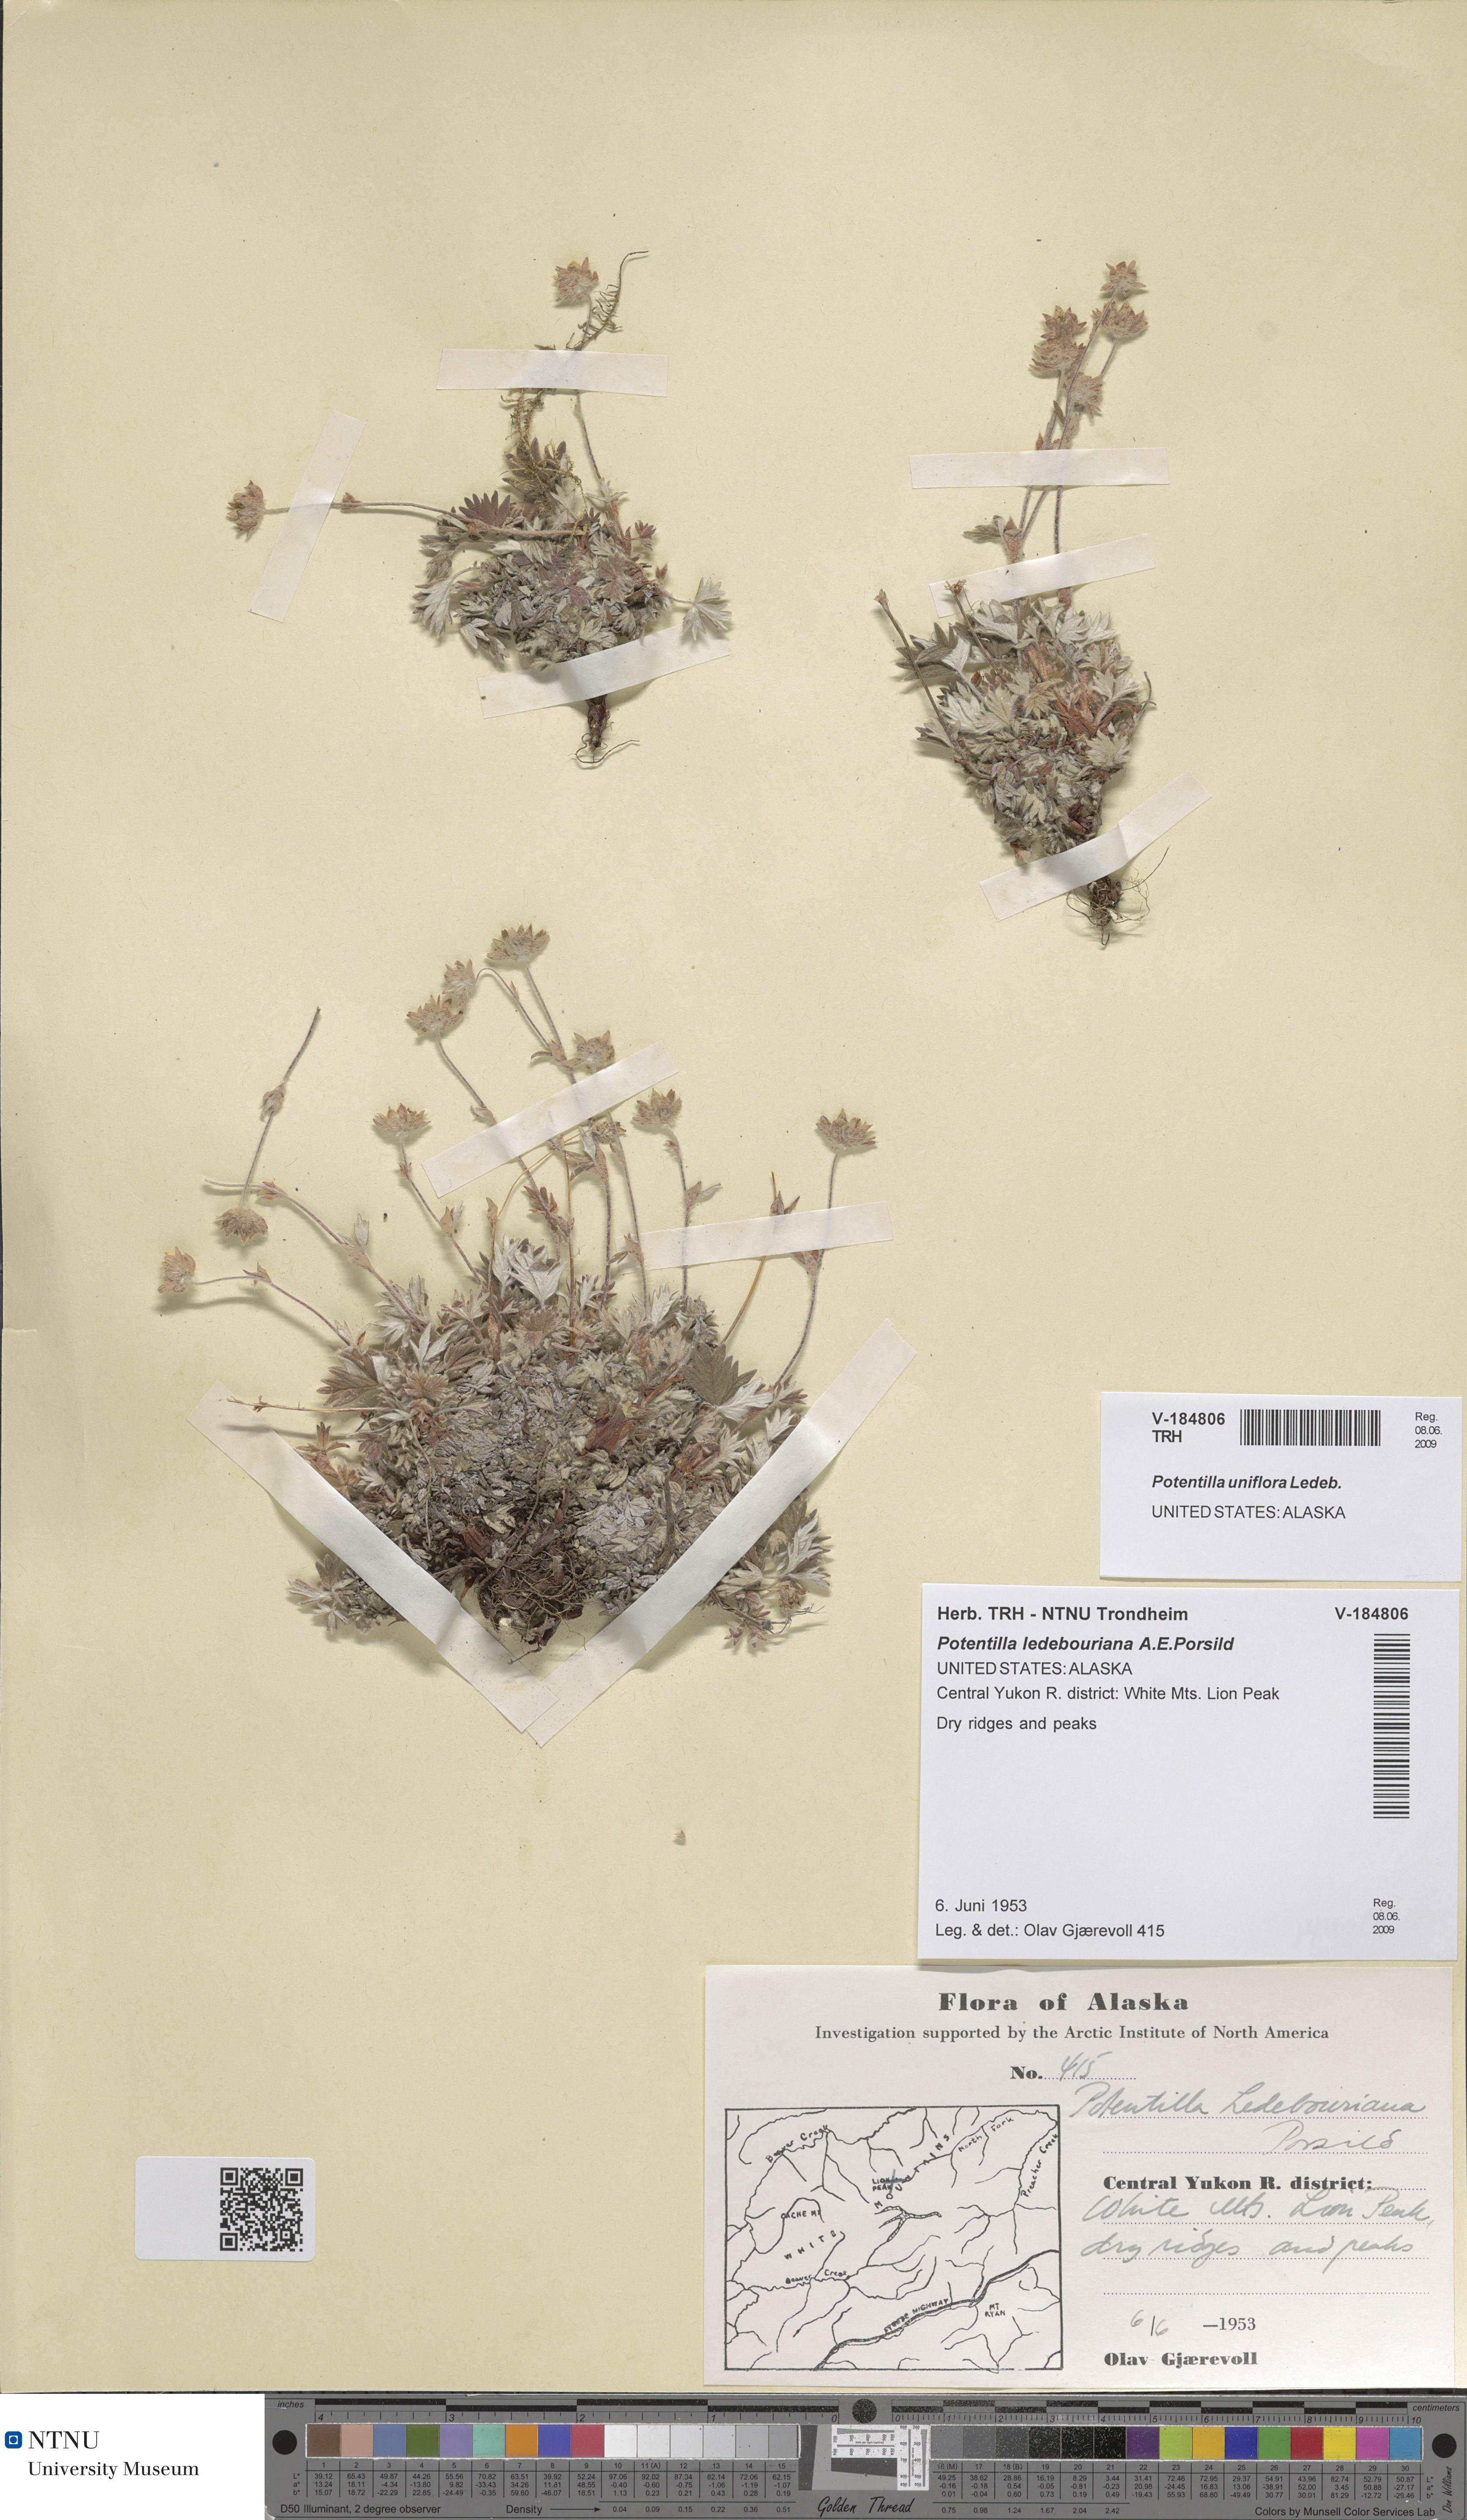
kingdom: Plantae
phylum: Tracheophyta
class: Magnoliopsida
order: Rosales
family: Rosaceae
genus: Potentilla
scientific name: Potentilla uniflora
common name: One-flowered cinquefoil
